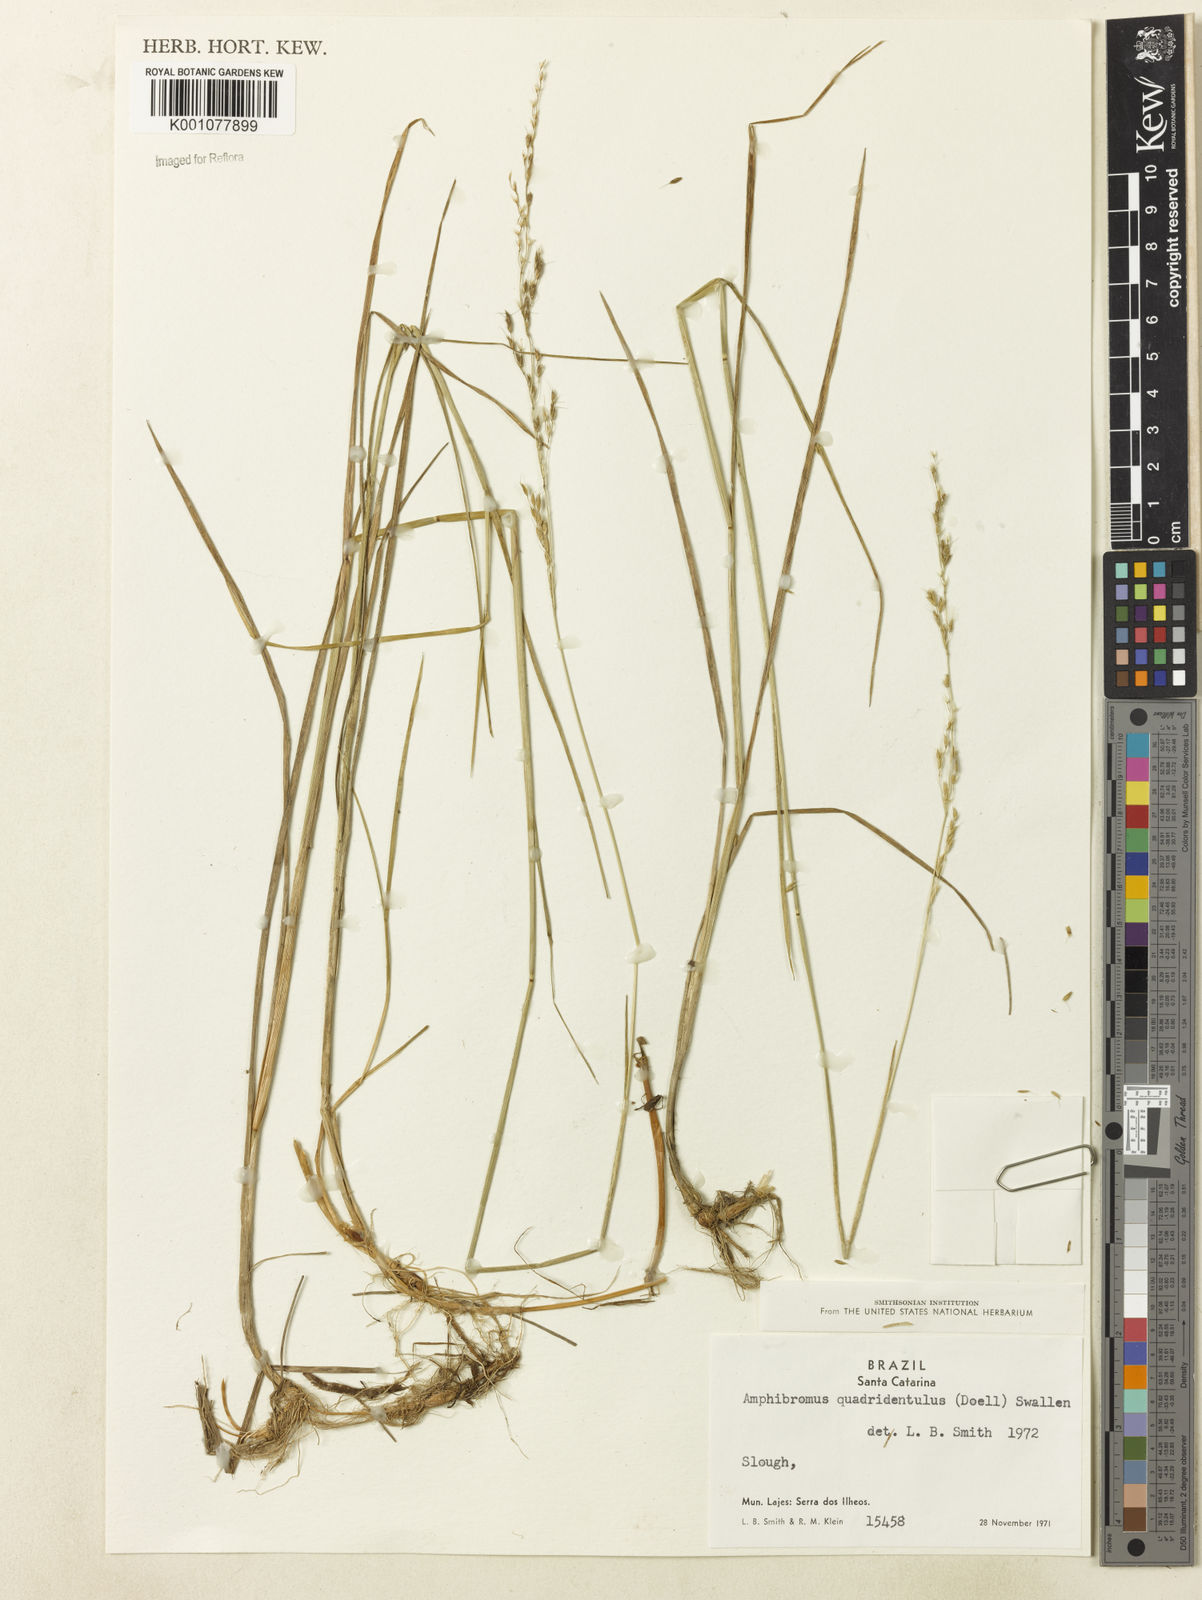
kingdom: Plantae
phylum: Tracheophyta
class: Liliopsida
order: Poales
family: Poaceae
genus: Helictotrichon
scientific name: Helictotrichon
